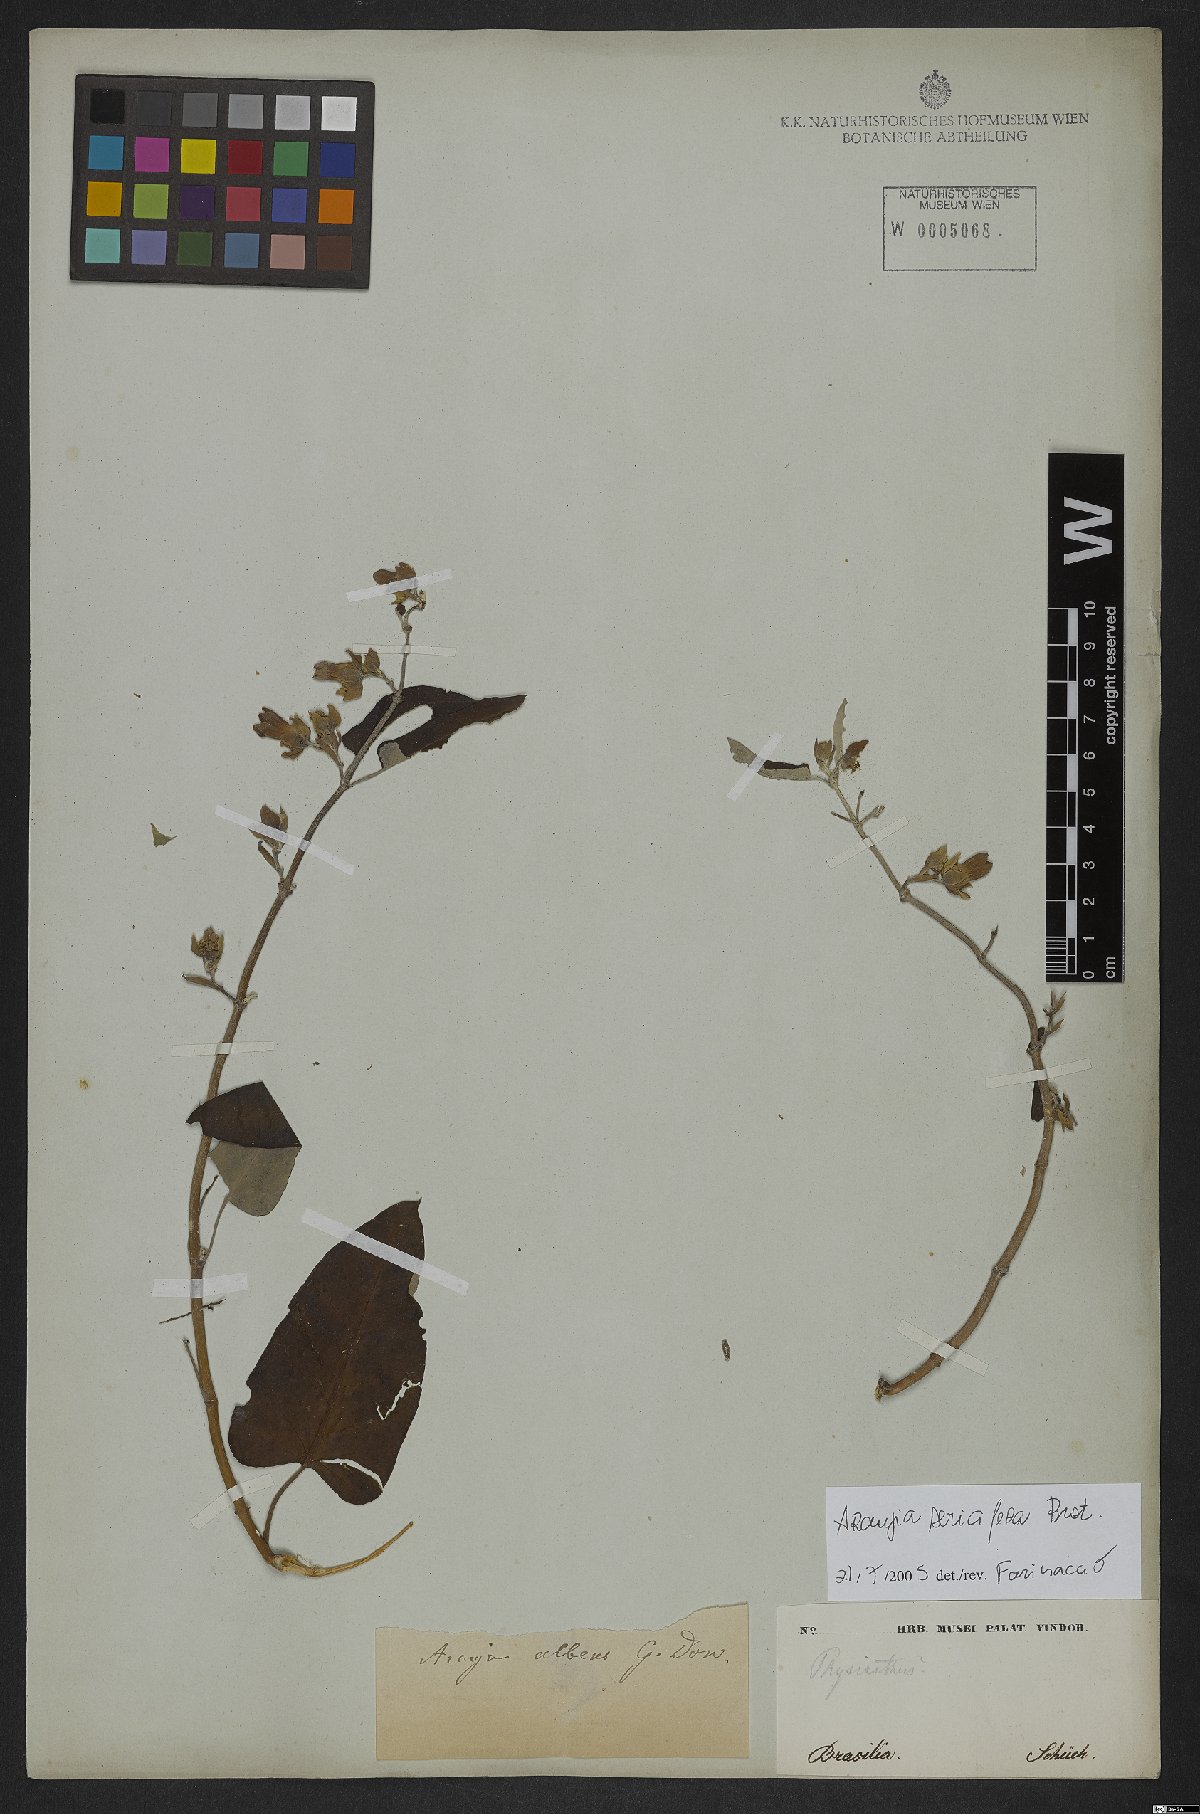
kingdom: Plantae
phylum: Tracheophyta
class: Magnoliopsida
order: Gentianales
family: Apocynaceae
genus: Araujia
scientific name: Araujia sericifera
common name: White bladderflower
